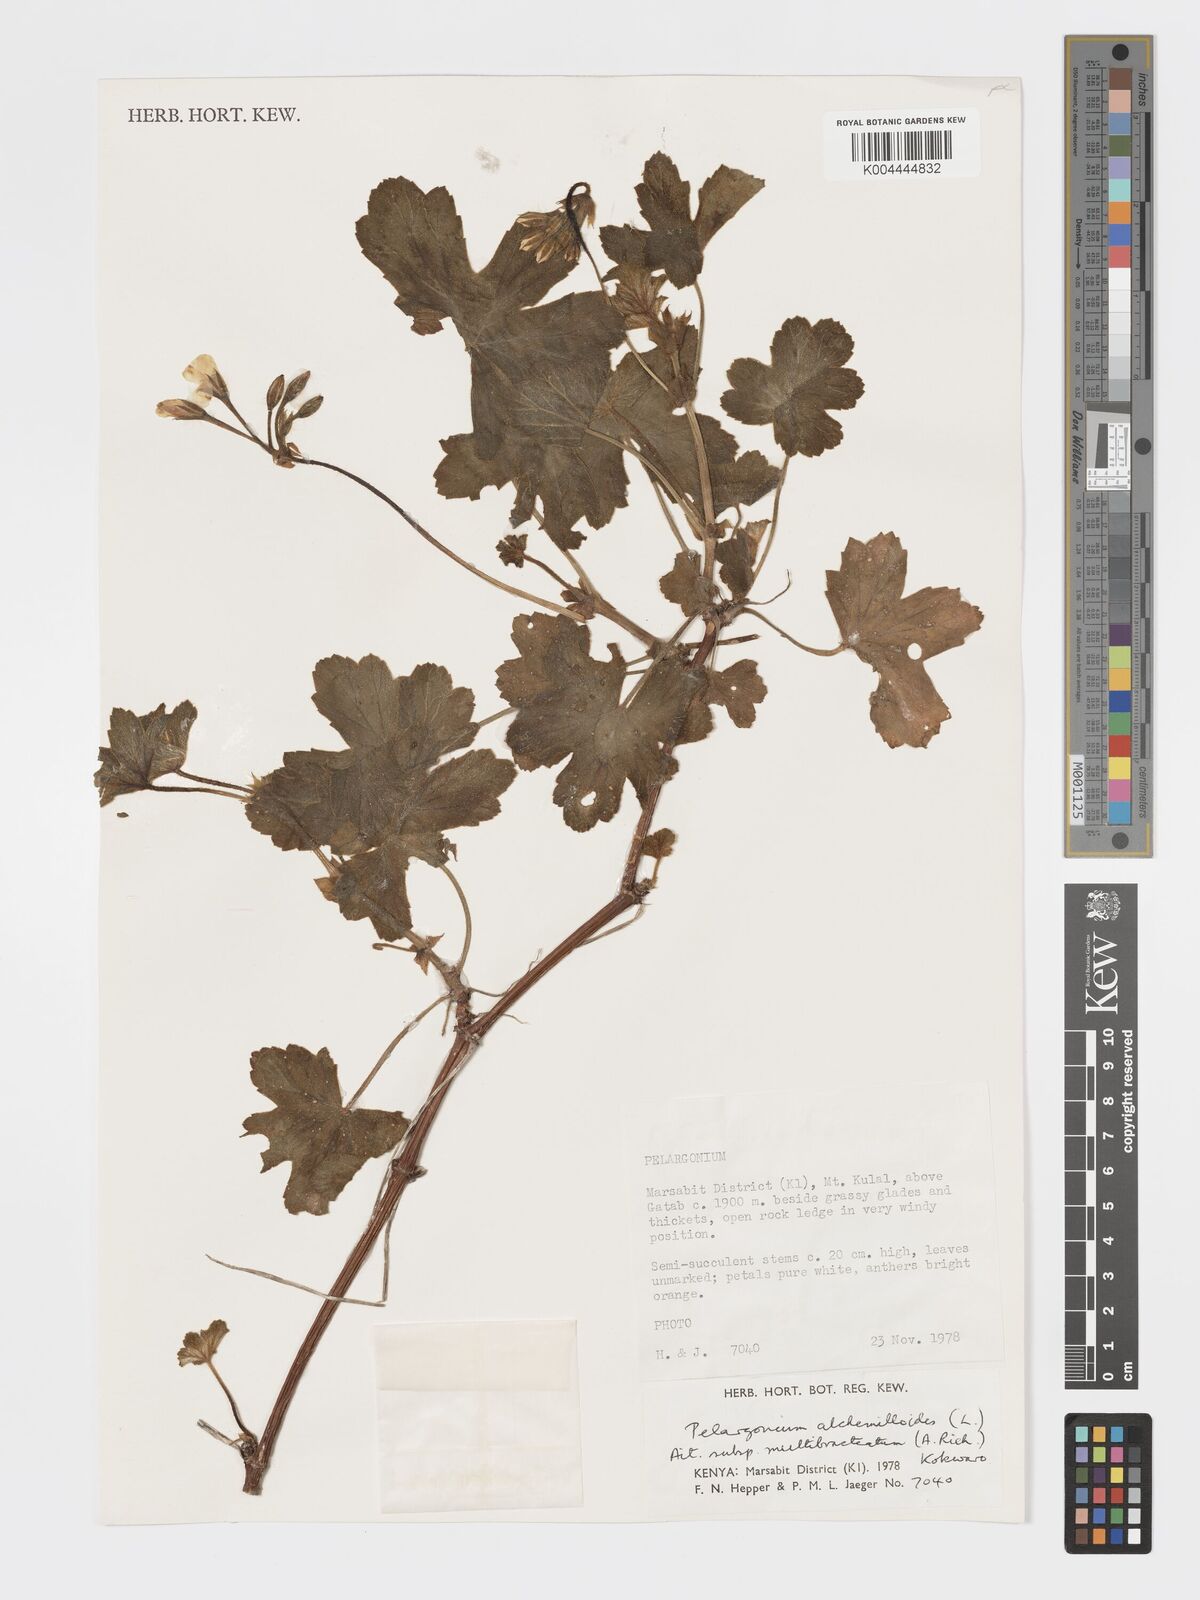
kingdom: Plantae
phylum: Tracheophyta
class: Magnoliopsida
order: Geraniales
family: Geraniaceae
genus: Pelargonium
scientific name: Pelargonium alchemilloides
